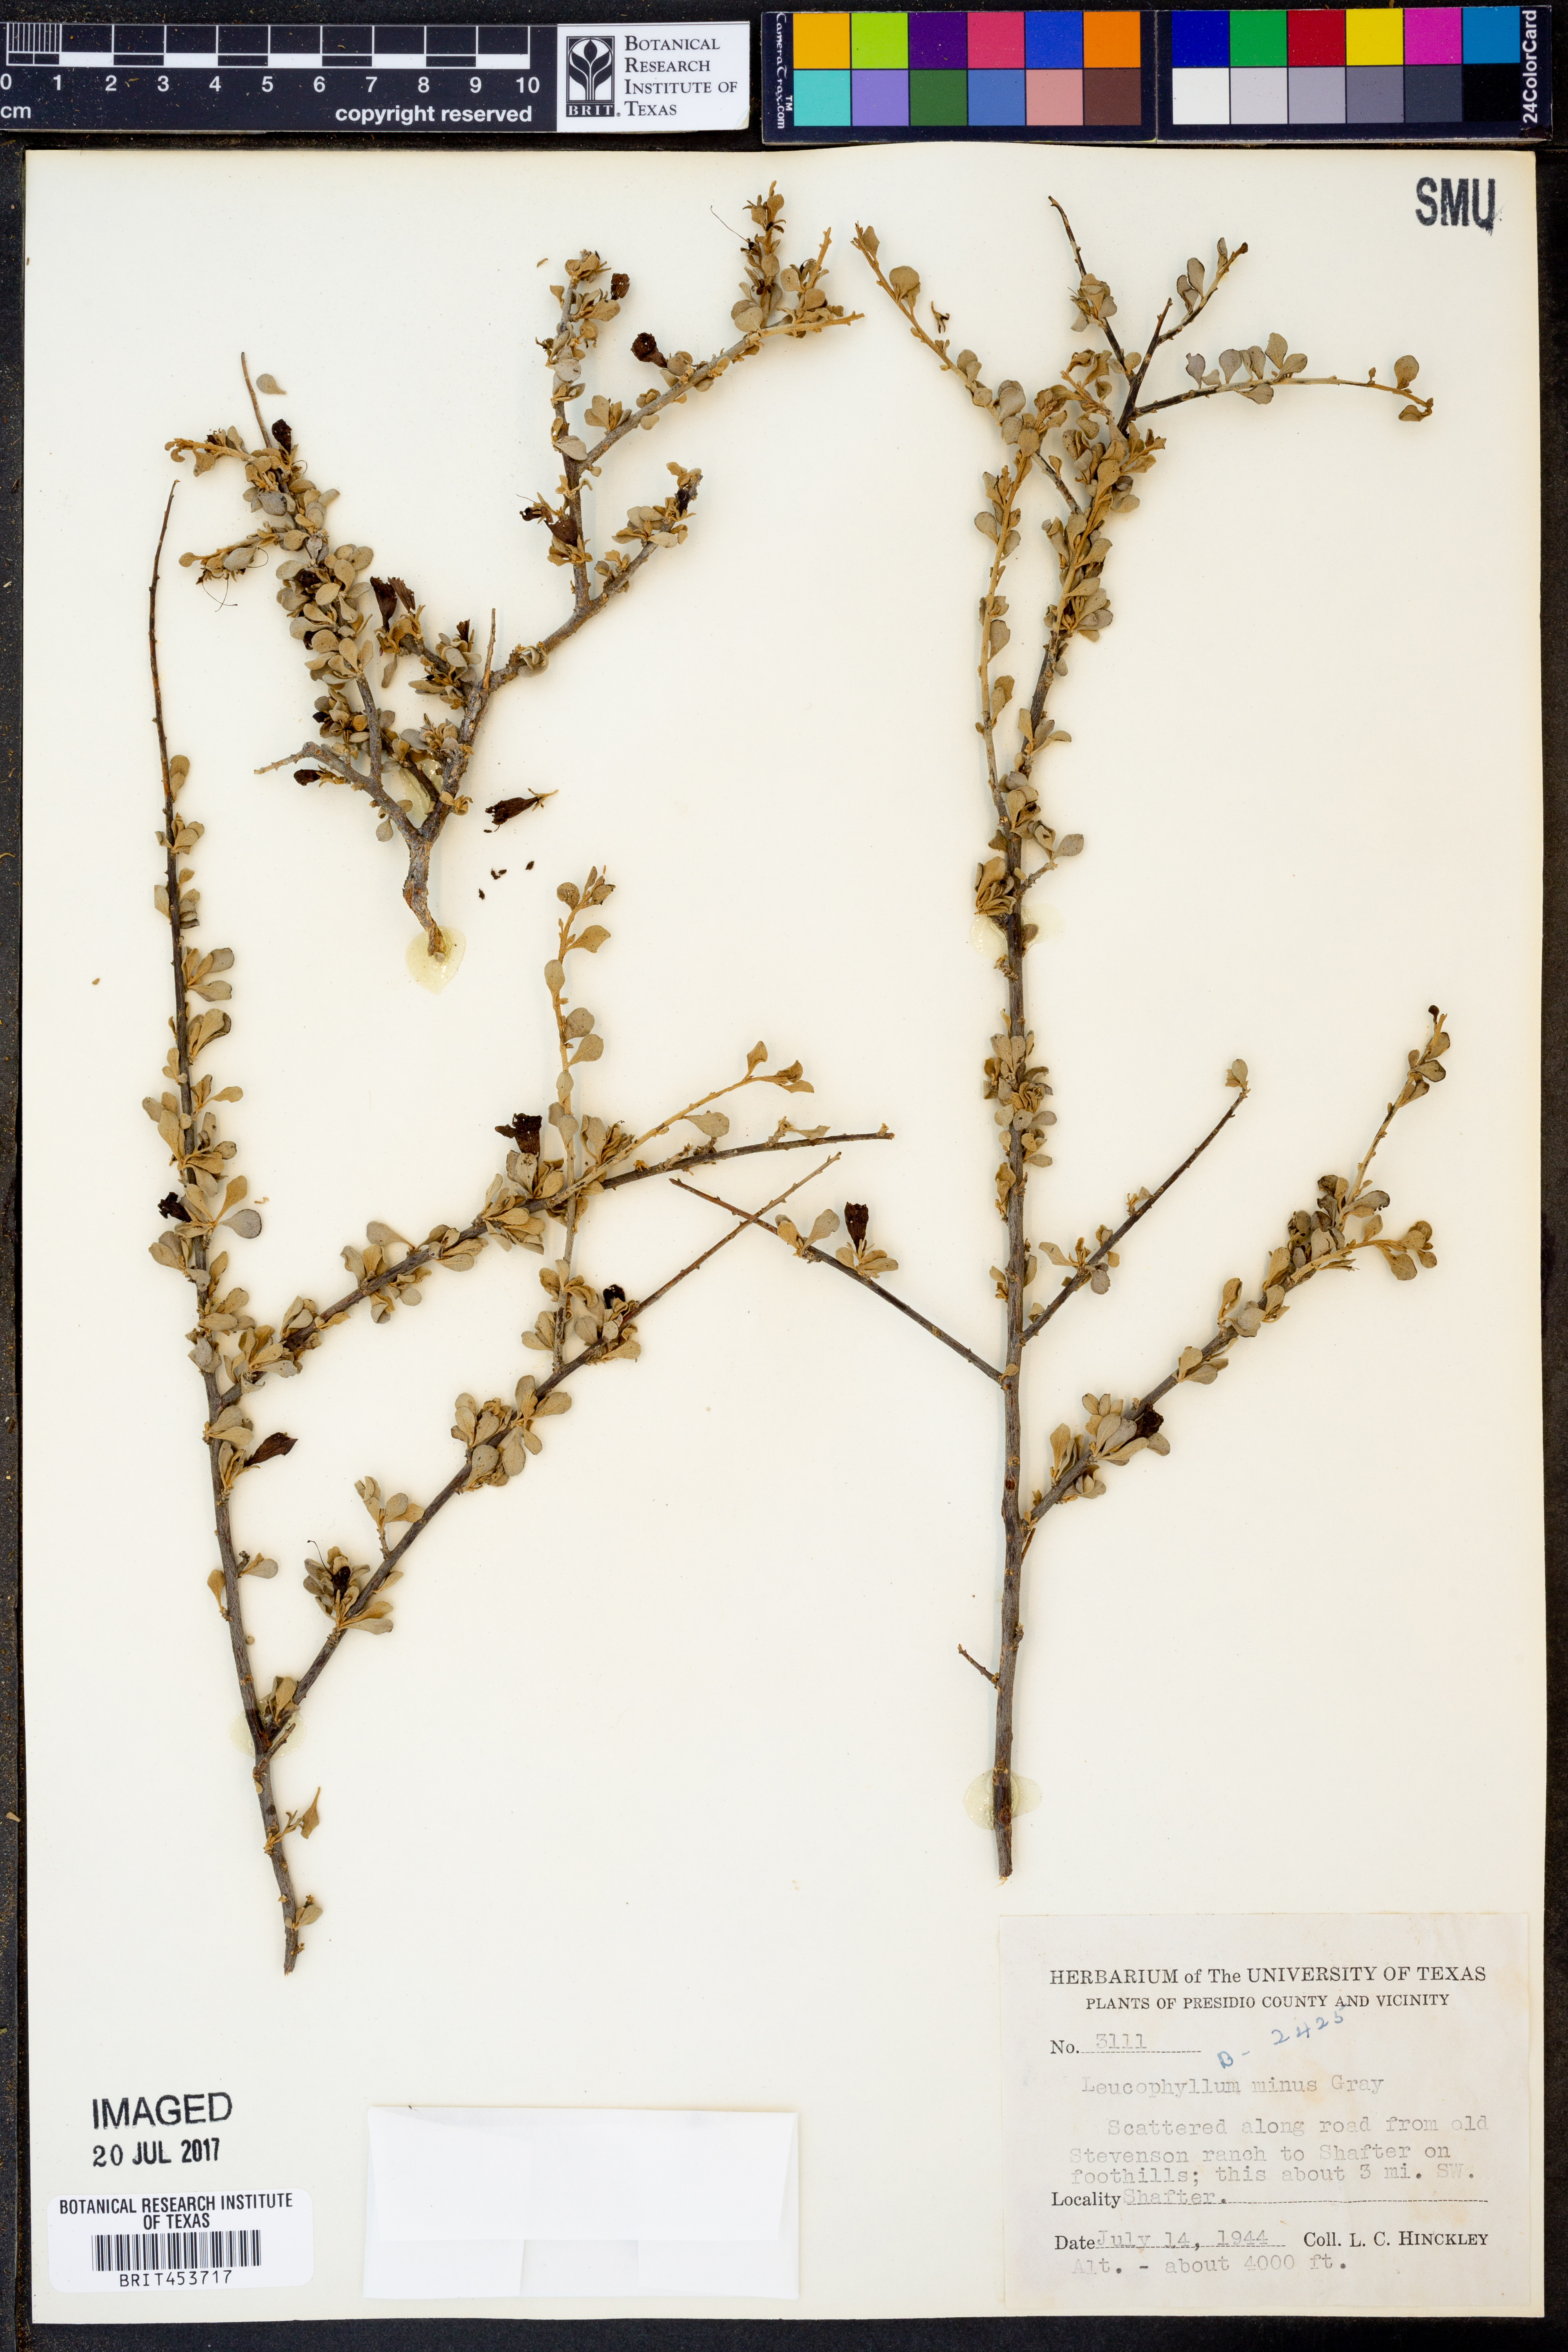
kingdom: Plantae
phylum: Tracheophyta
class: Magnoliopsida
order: Lamiales
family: Scrophulariaceae
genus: Leucophyllum
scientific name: Leucophyllum minus
